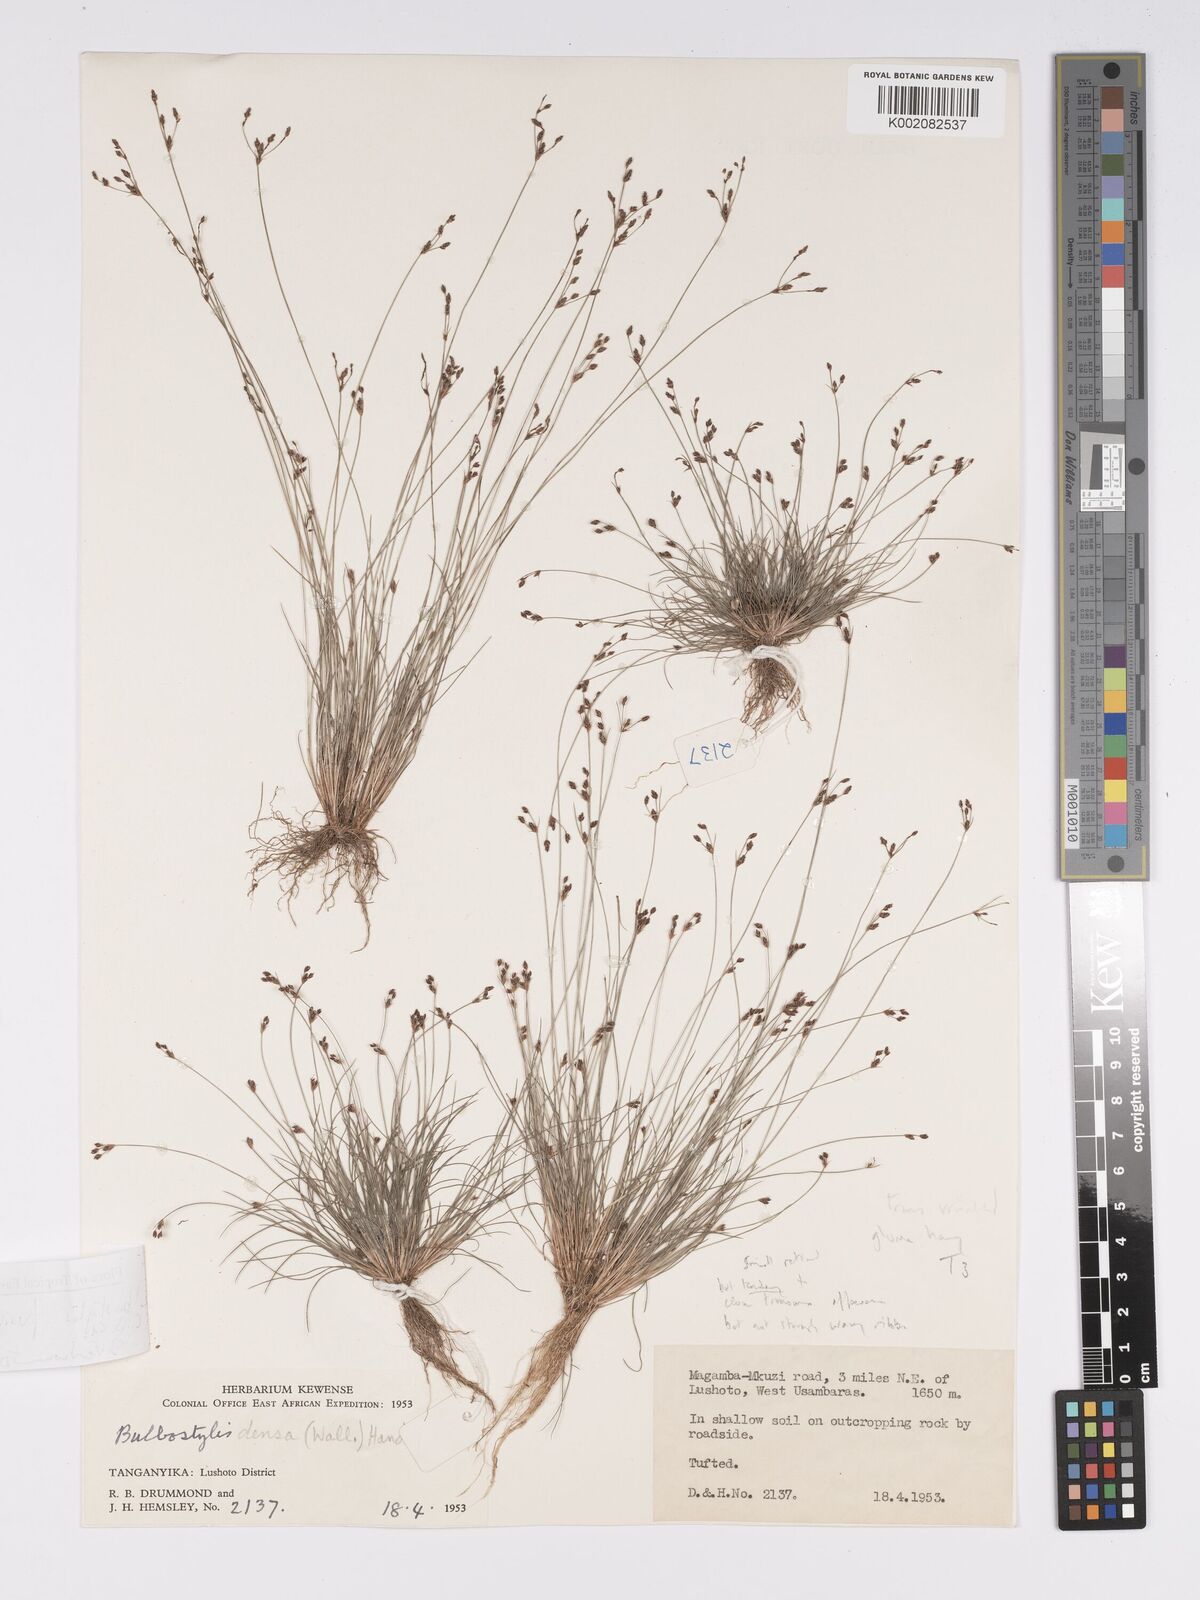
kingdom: Plantae
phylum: Tracheophyta
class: Liliopsida
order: Poales
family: Cyperaceae
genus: Bulbostylis
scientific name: Bulbostylis pusilla
